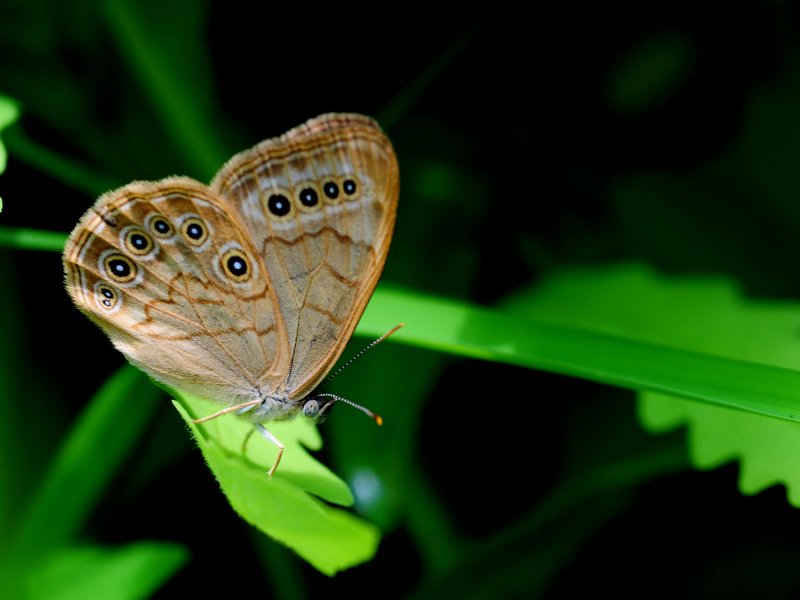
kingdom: Animalia
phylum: Arthropoda
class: Insecta
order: Lepidoptera
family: Nymphalidae
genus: Lethe
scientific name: Lethe eurydice
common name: Eyed Brown
